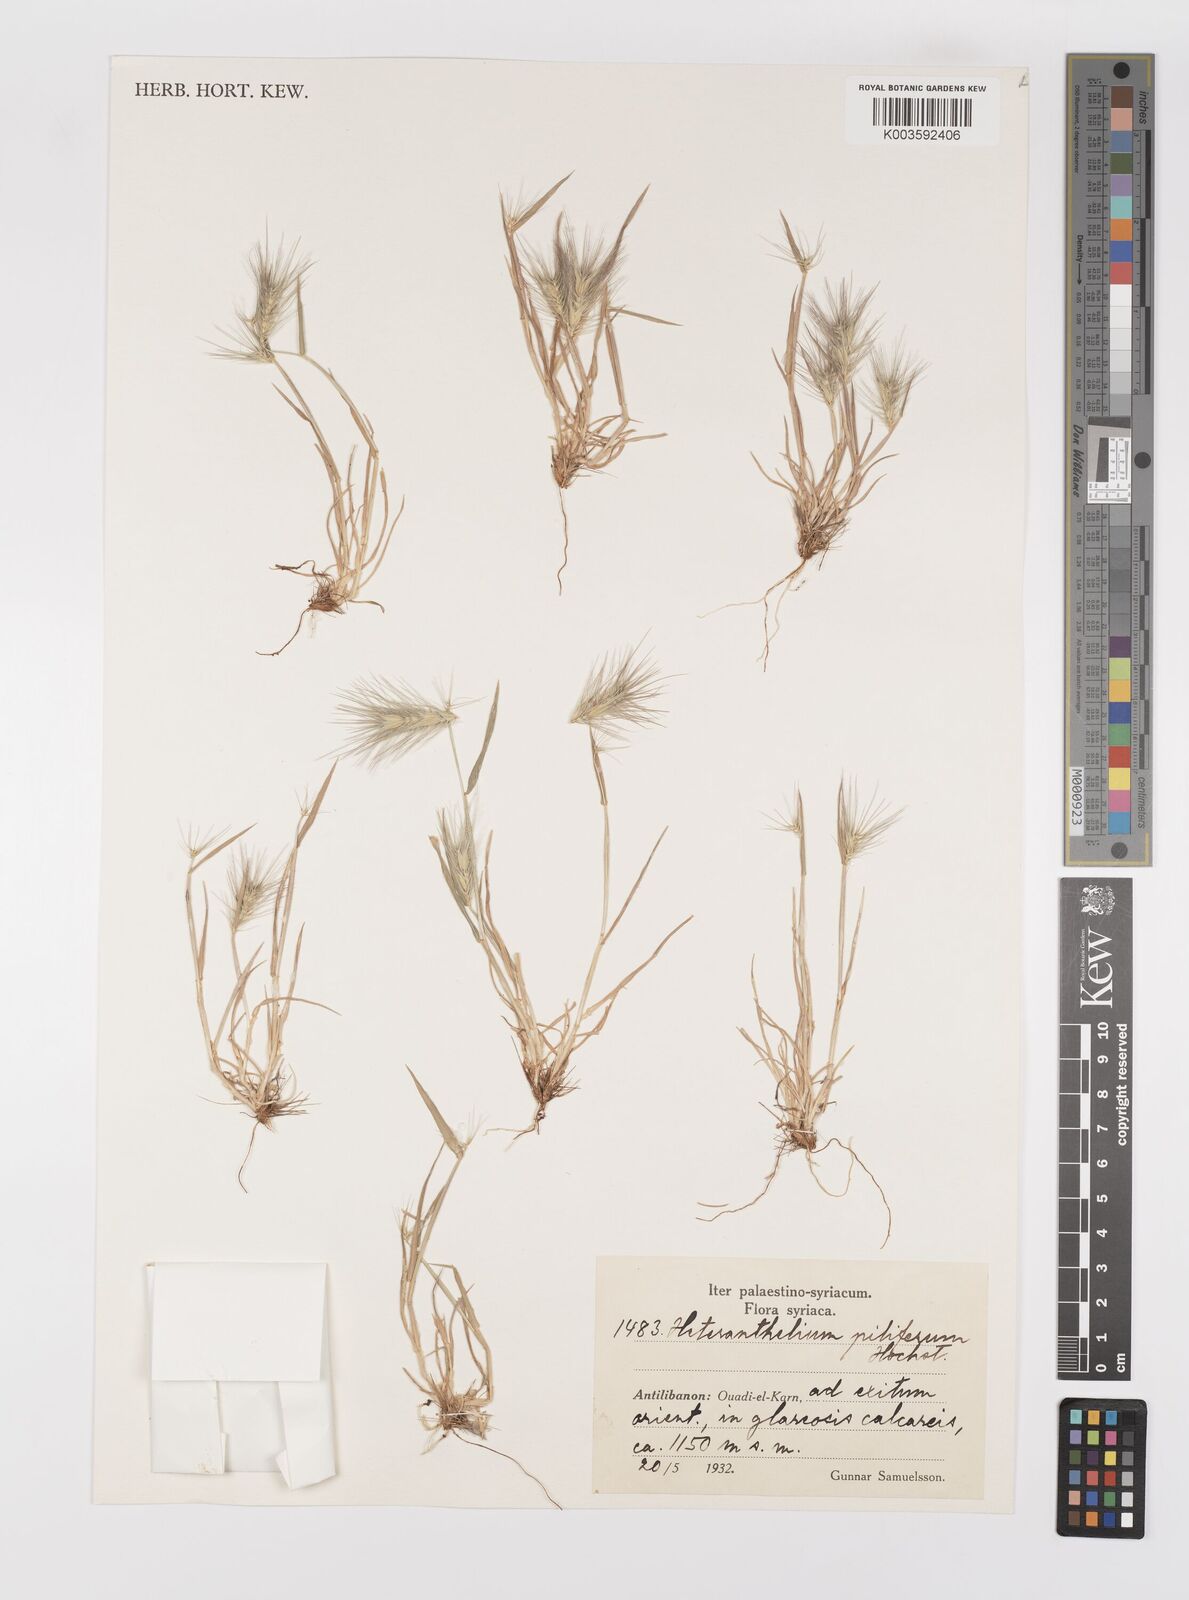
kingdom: Plantae
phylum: Tracheophyta
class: Liliopsida
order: Poales
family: Poaceae
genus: Heteranthelium
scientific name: Heteranthelium piliferum
